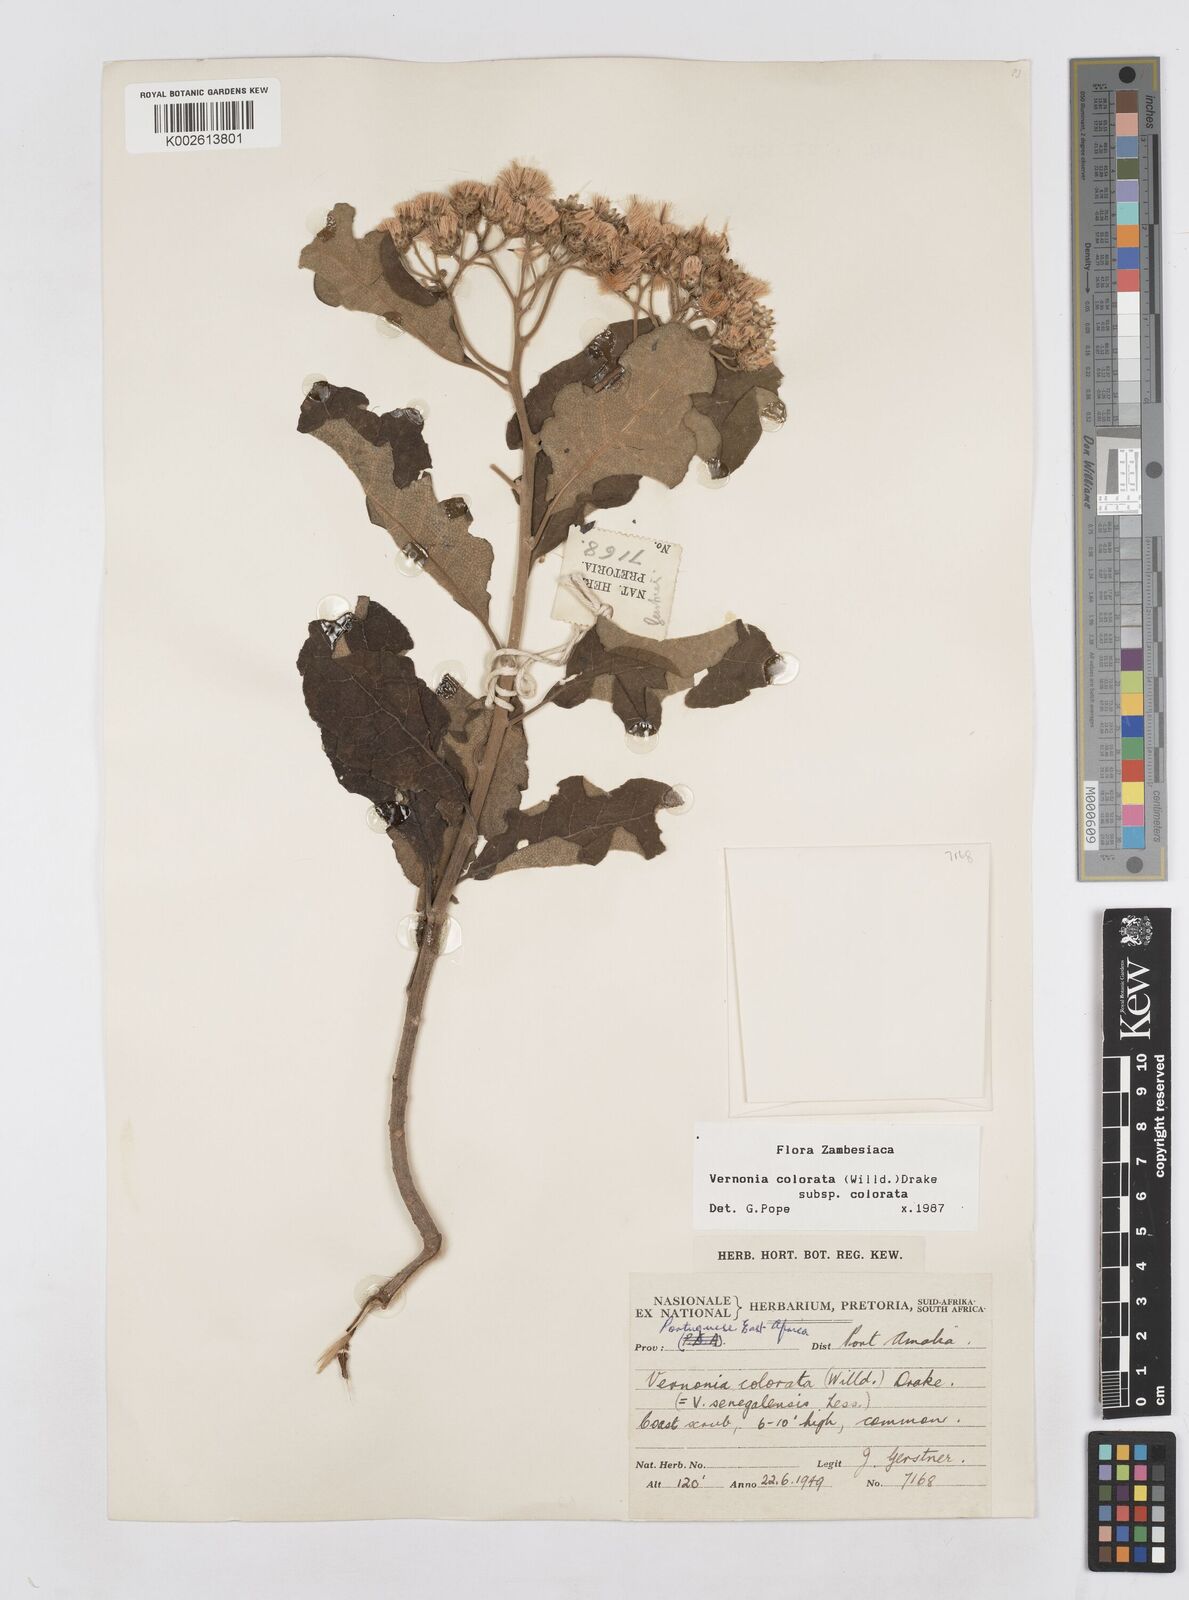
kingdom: Plantae
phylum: Tracheophyta
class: Magnoliopsida
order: Asterales
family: Asteraceae
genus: Vernonia
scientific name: Vernonia colorata
